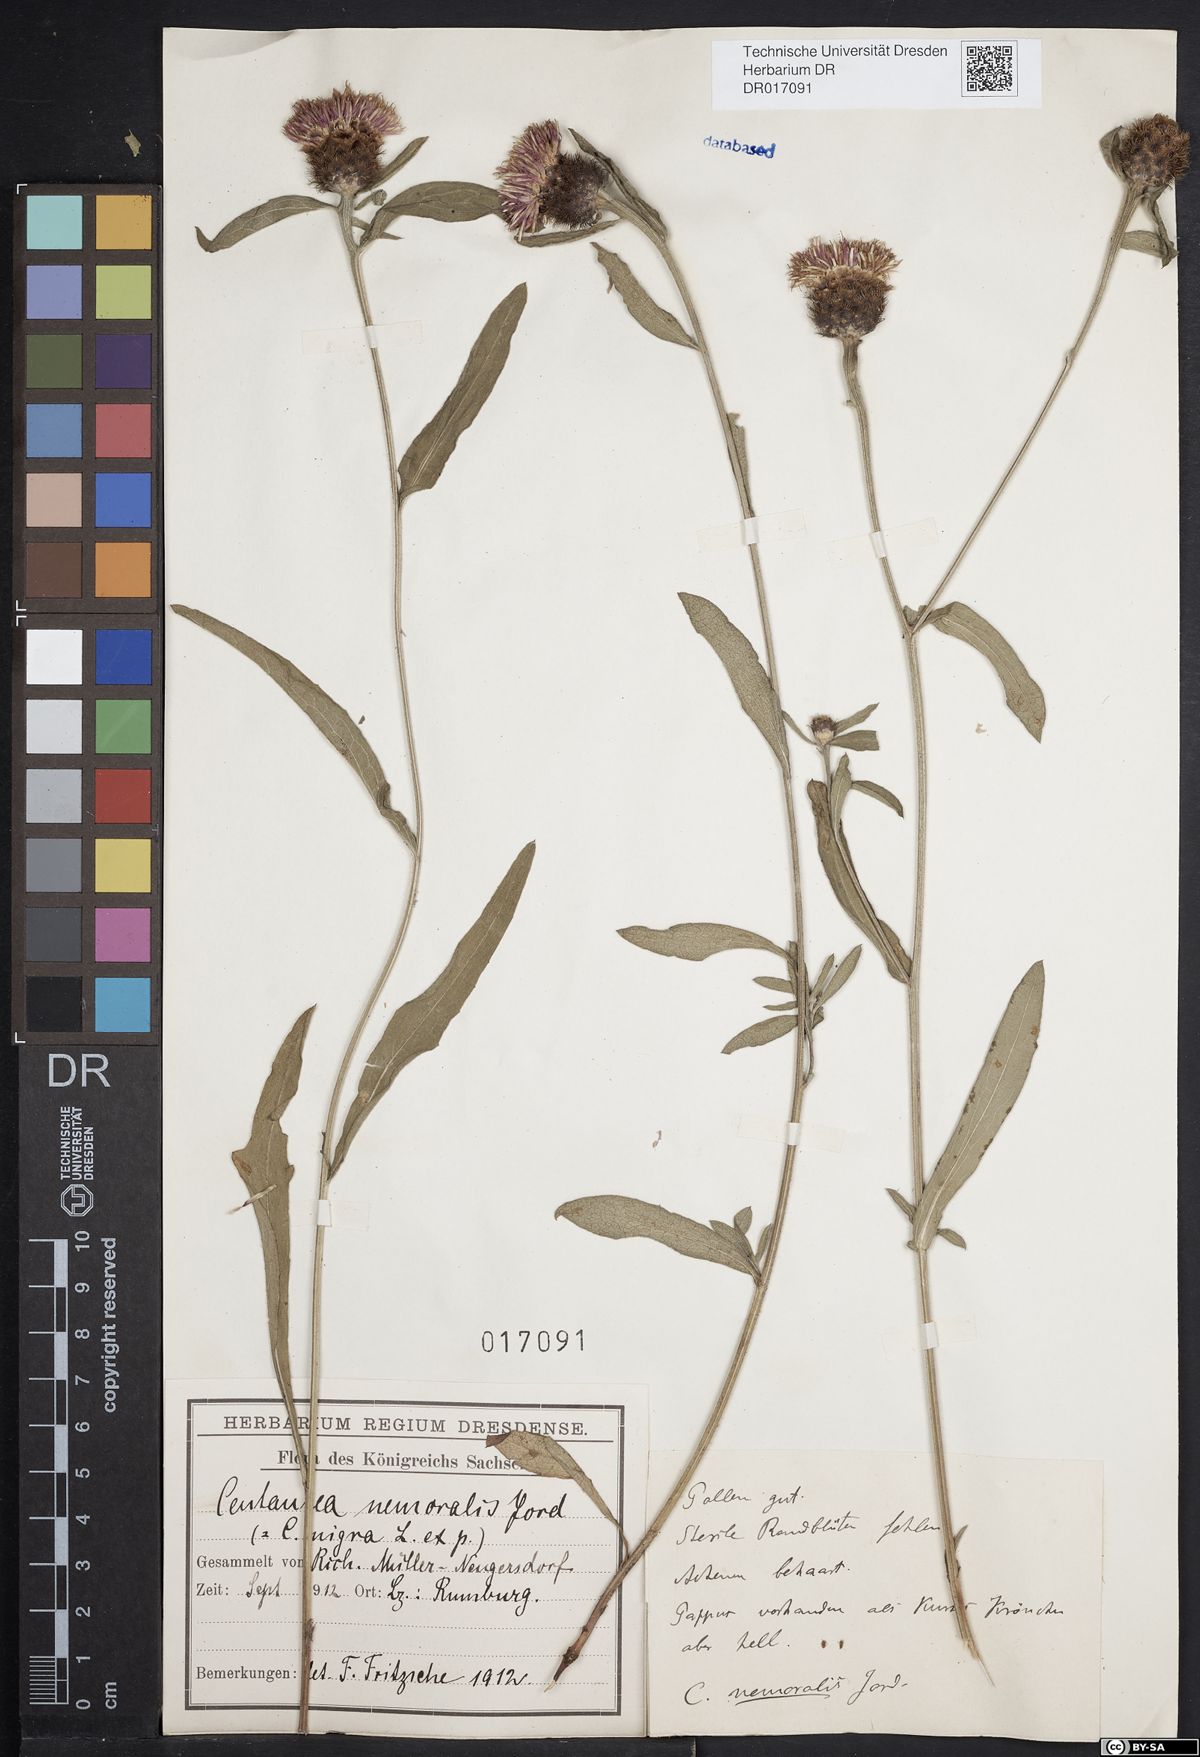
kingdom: Plantae
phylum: Tracheophyta
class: Magnoliopsida
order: Asterales
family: Asteraceae
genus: Centaurea
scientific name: Centaurea nigra
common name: Lesser knapweed
